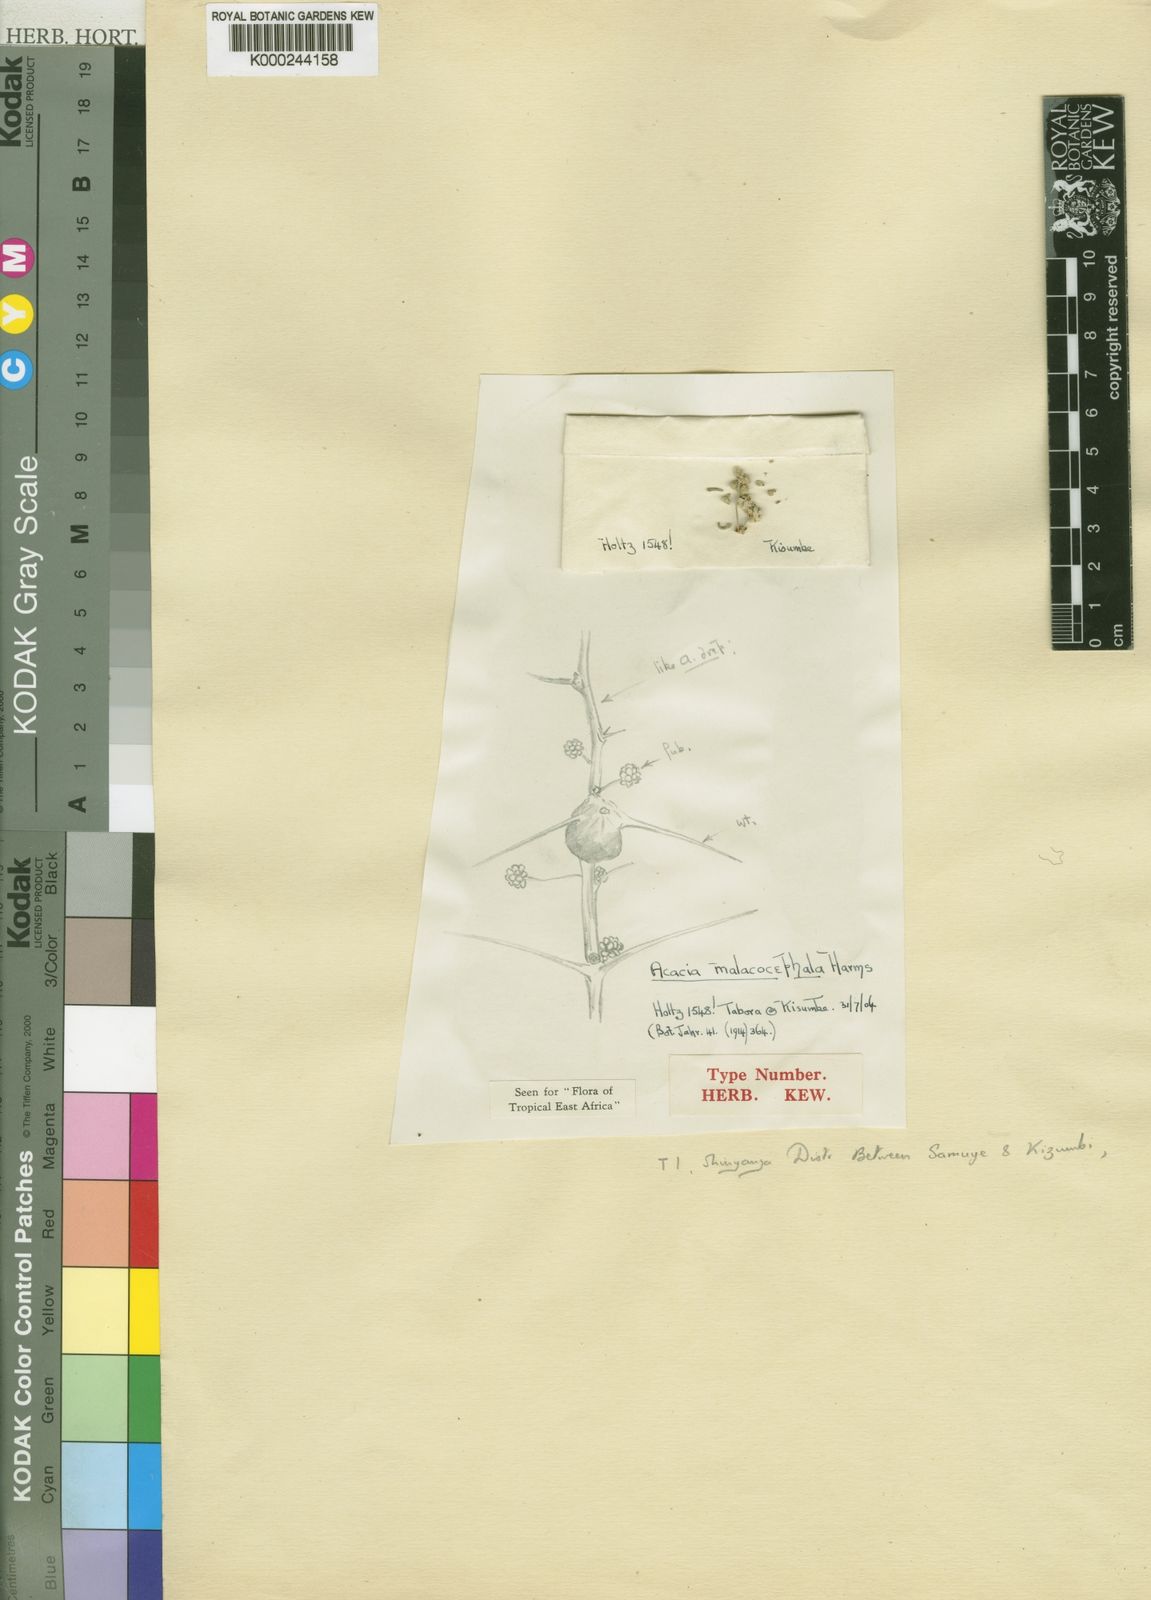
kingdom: Plantae
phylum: Tracheophyta
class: Magnoliopsida
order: Fabales
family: Fabaceae
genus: Vachellia
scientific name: Vachellia malacocephala
